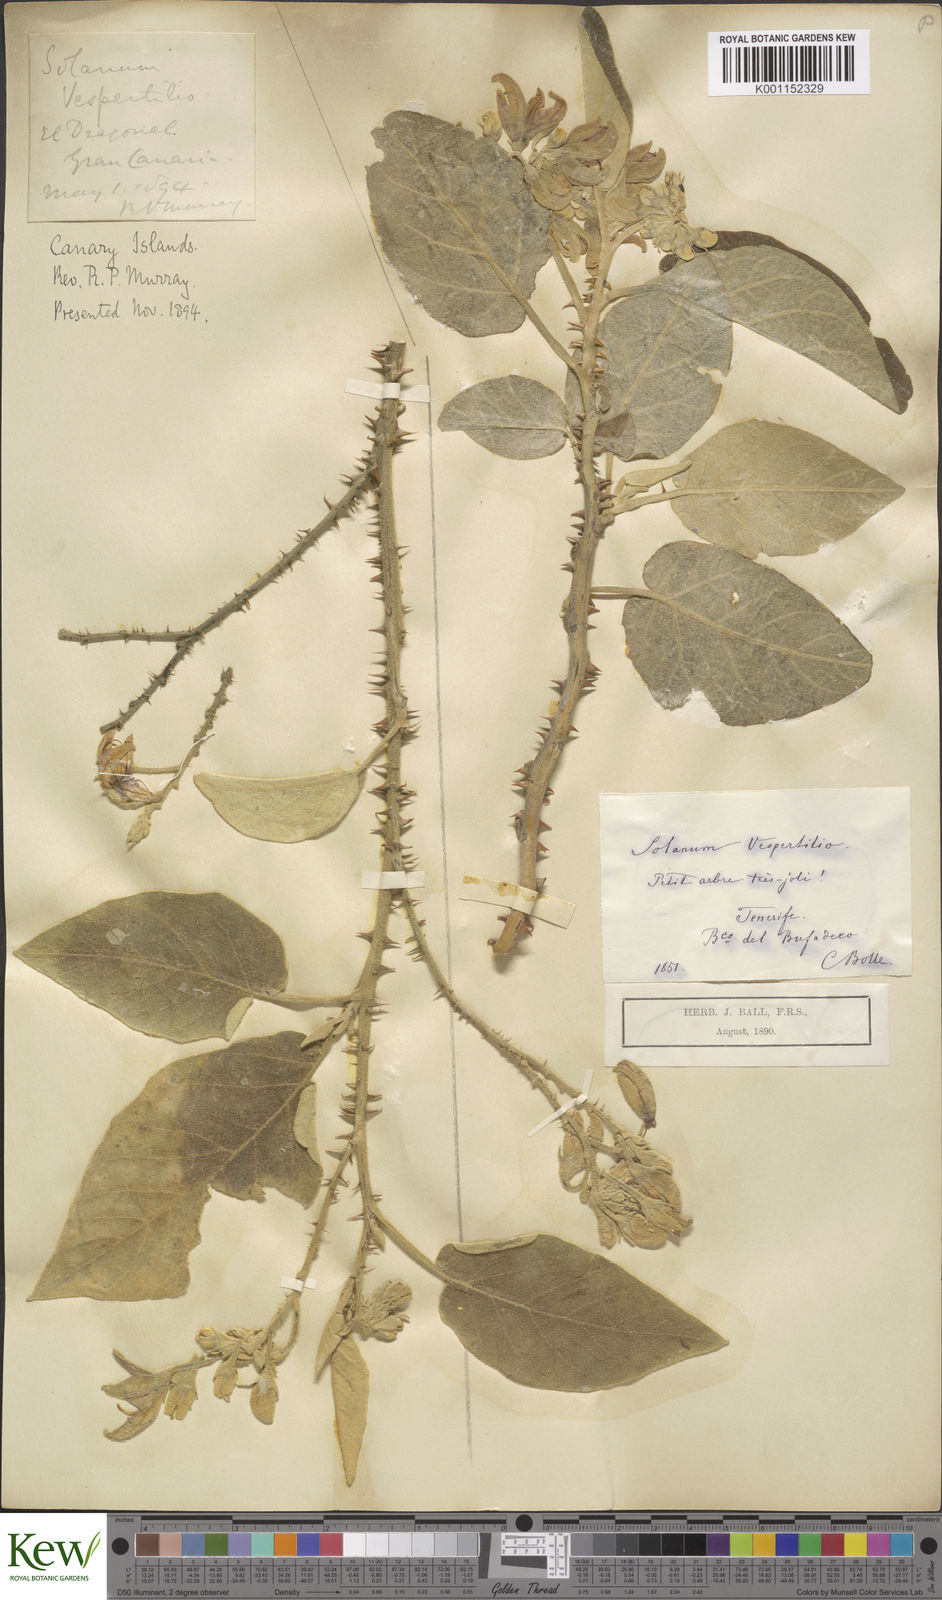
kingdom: Plantae
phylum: Tracheophyta
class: Magnoliopsida
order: Solanales
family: Solanaceae
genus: Solanum
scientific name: Solanum vespertilio
